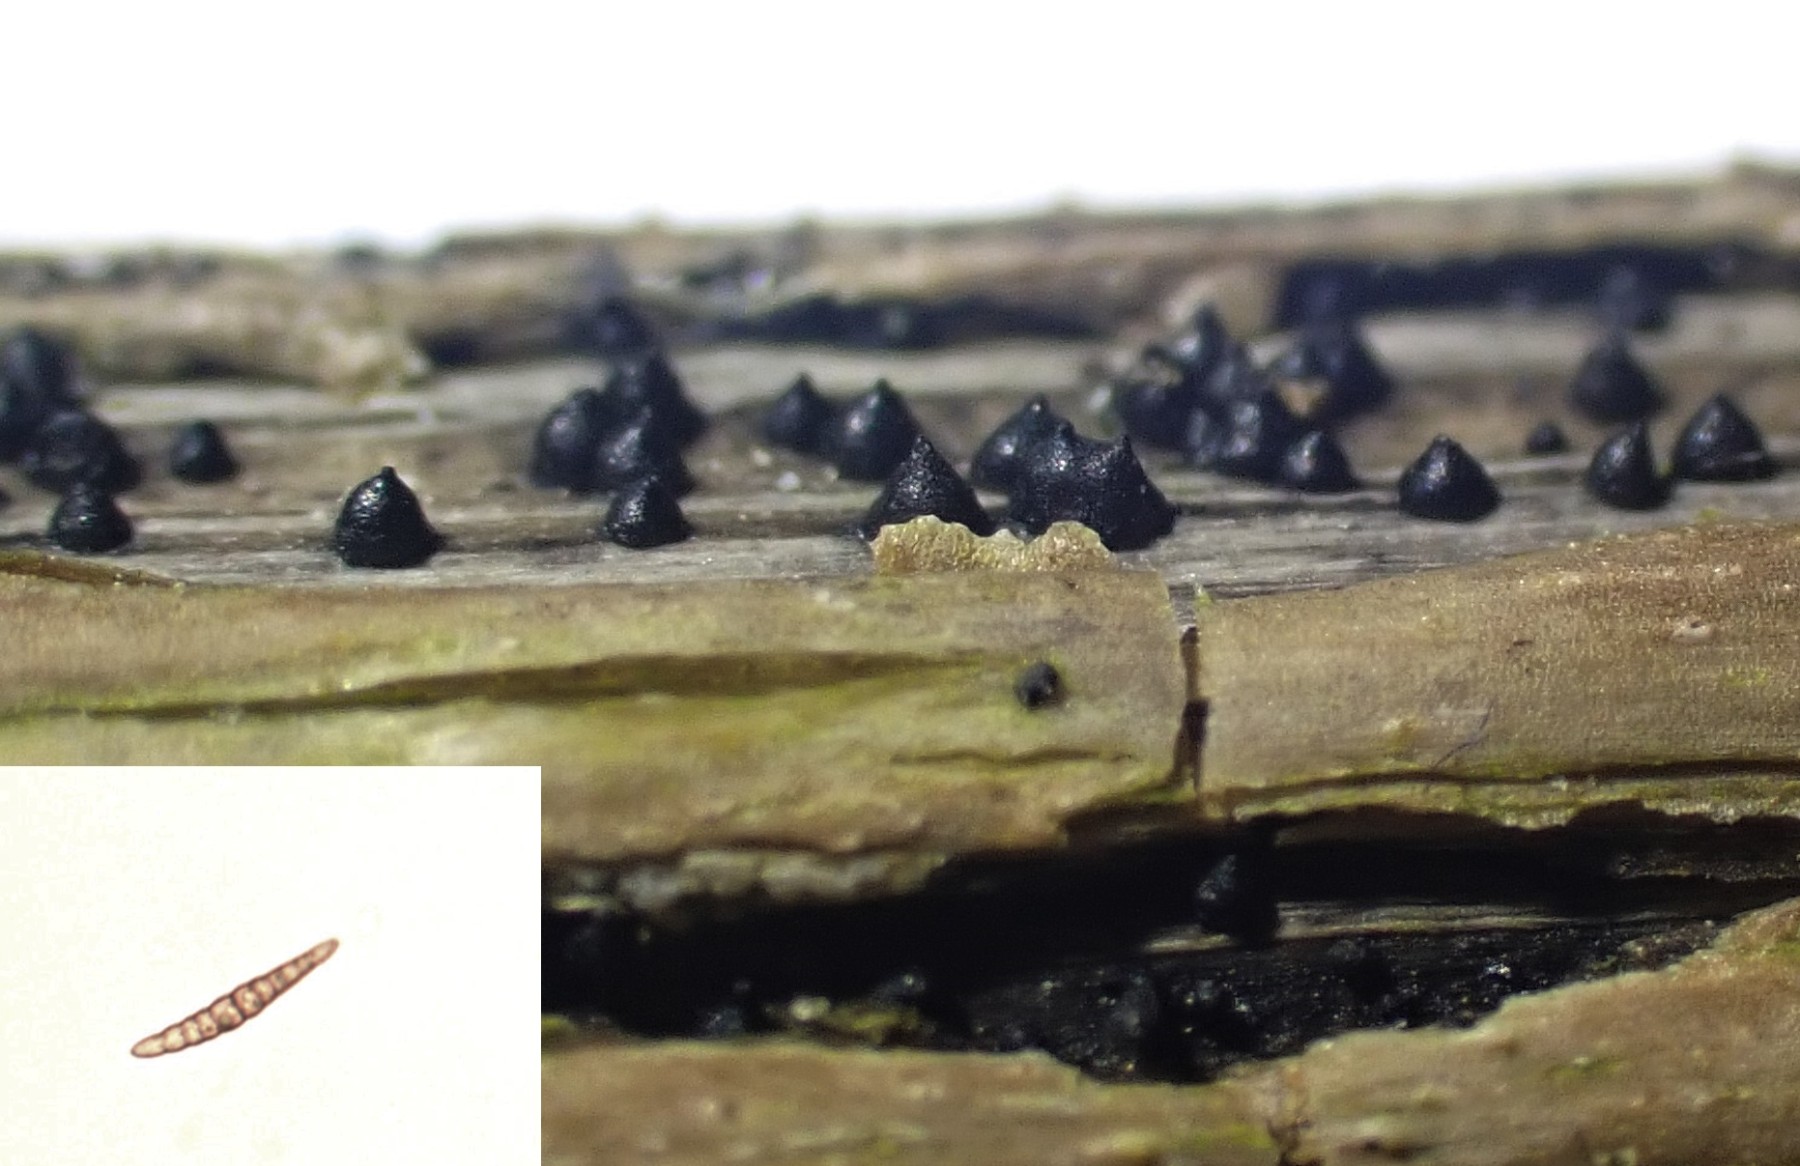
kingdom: Fungi
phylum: Ascomycota
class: Dothideomycetes
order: Pleosporales
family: Leptosphaeriaceae
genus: Leptosphaeria
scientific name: Leptosphaeria acuta
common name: spids kulkegle
